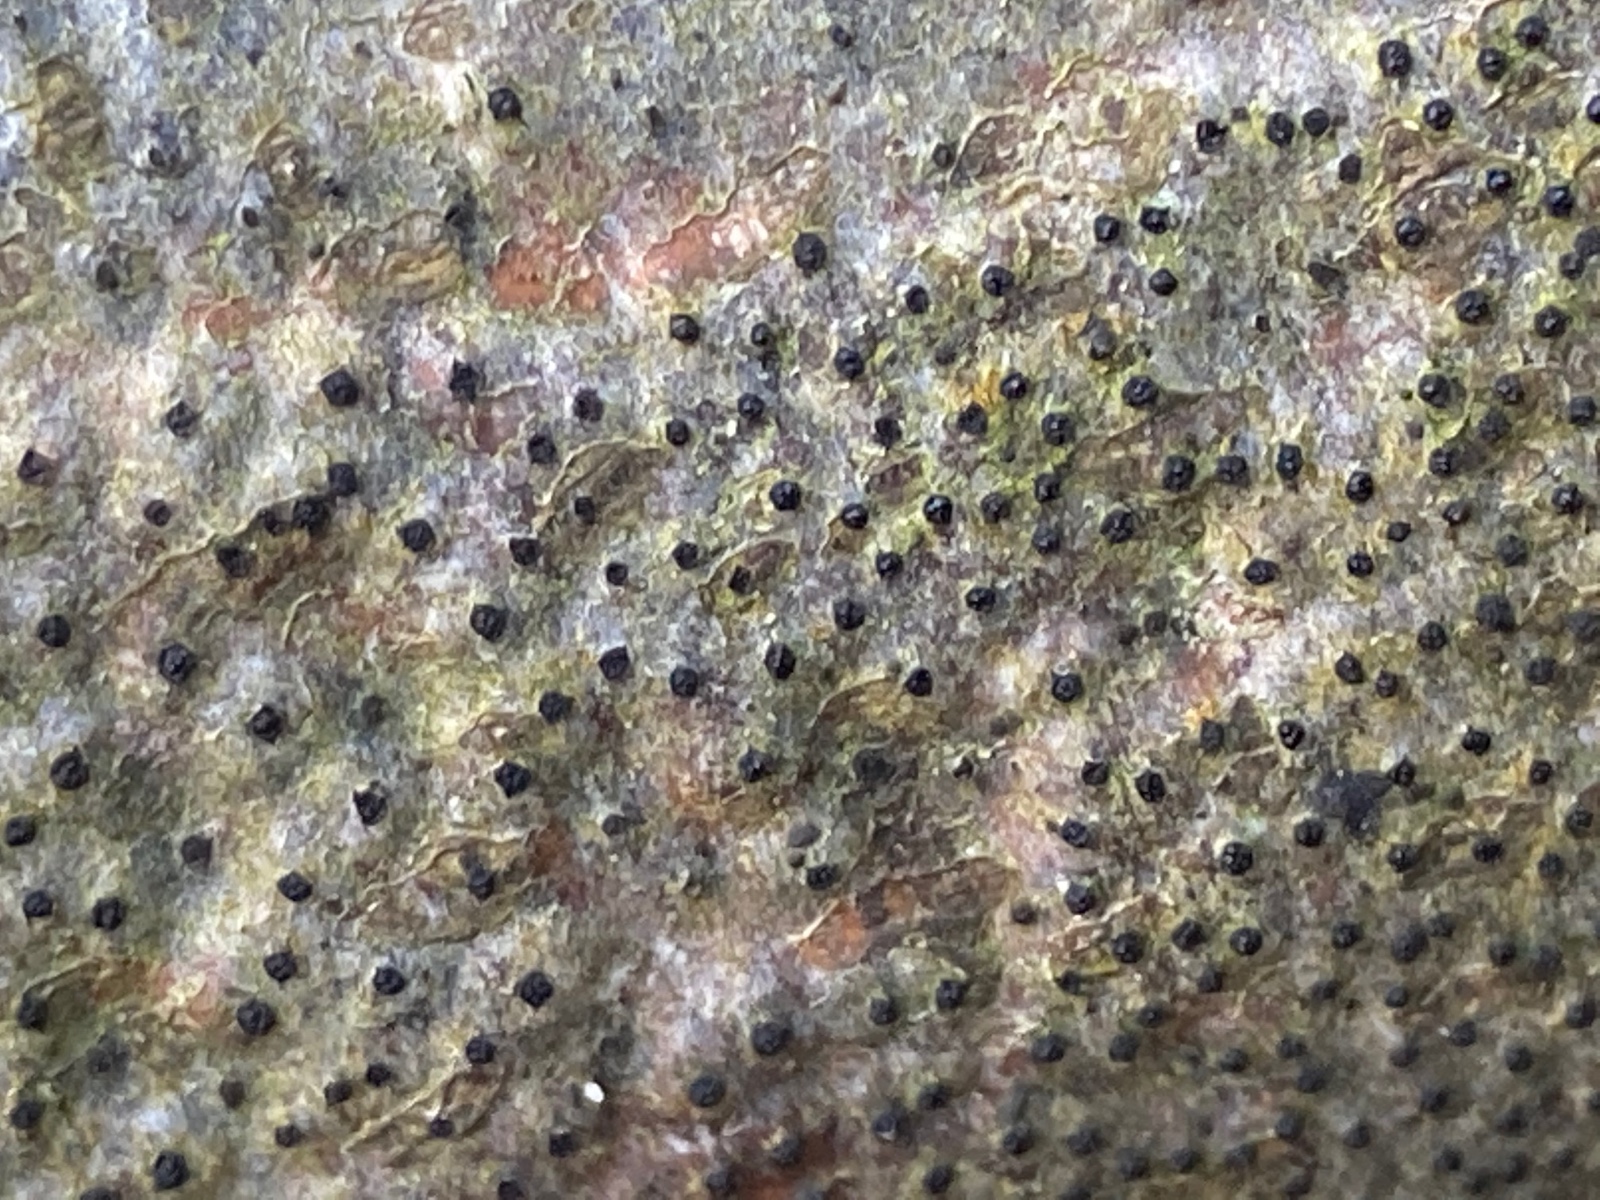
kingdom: Fungi
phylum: Ascomycota
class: Sordariomycetes
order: Xylariales
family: Diatrypaceae
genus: Eutypella
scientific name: Eutypella quaternata
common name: bøge-korsprik
